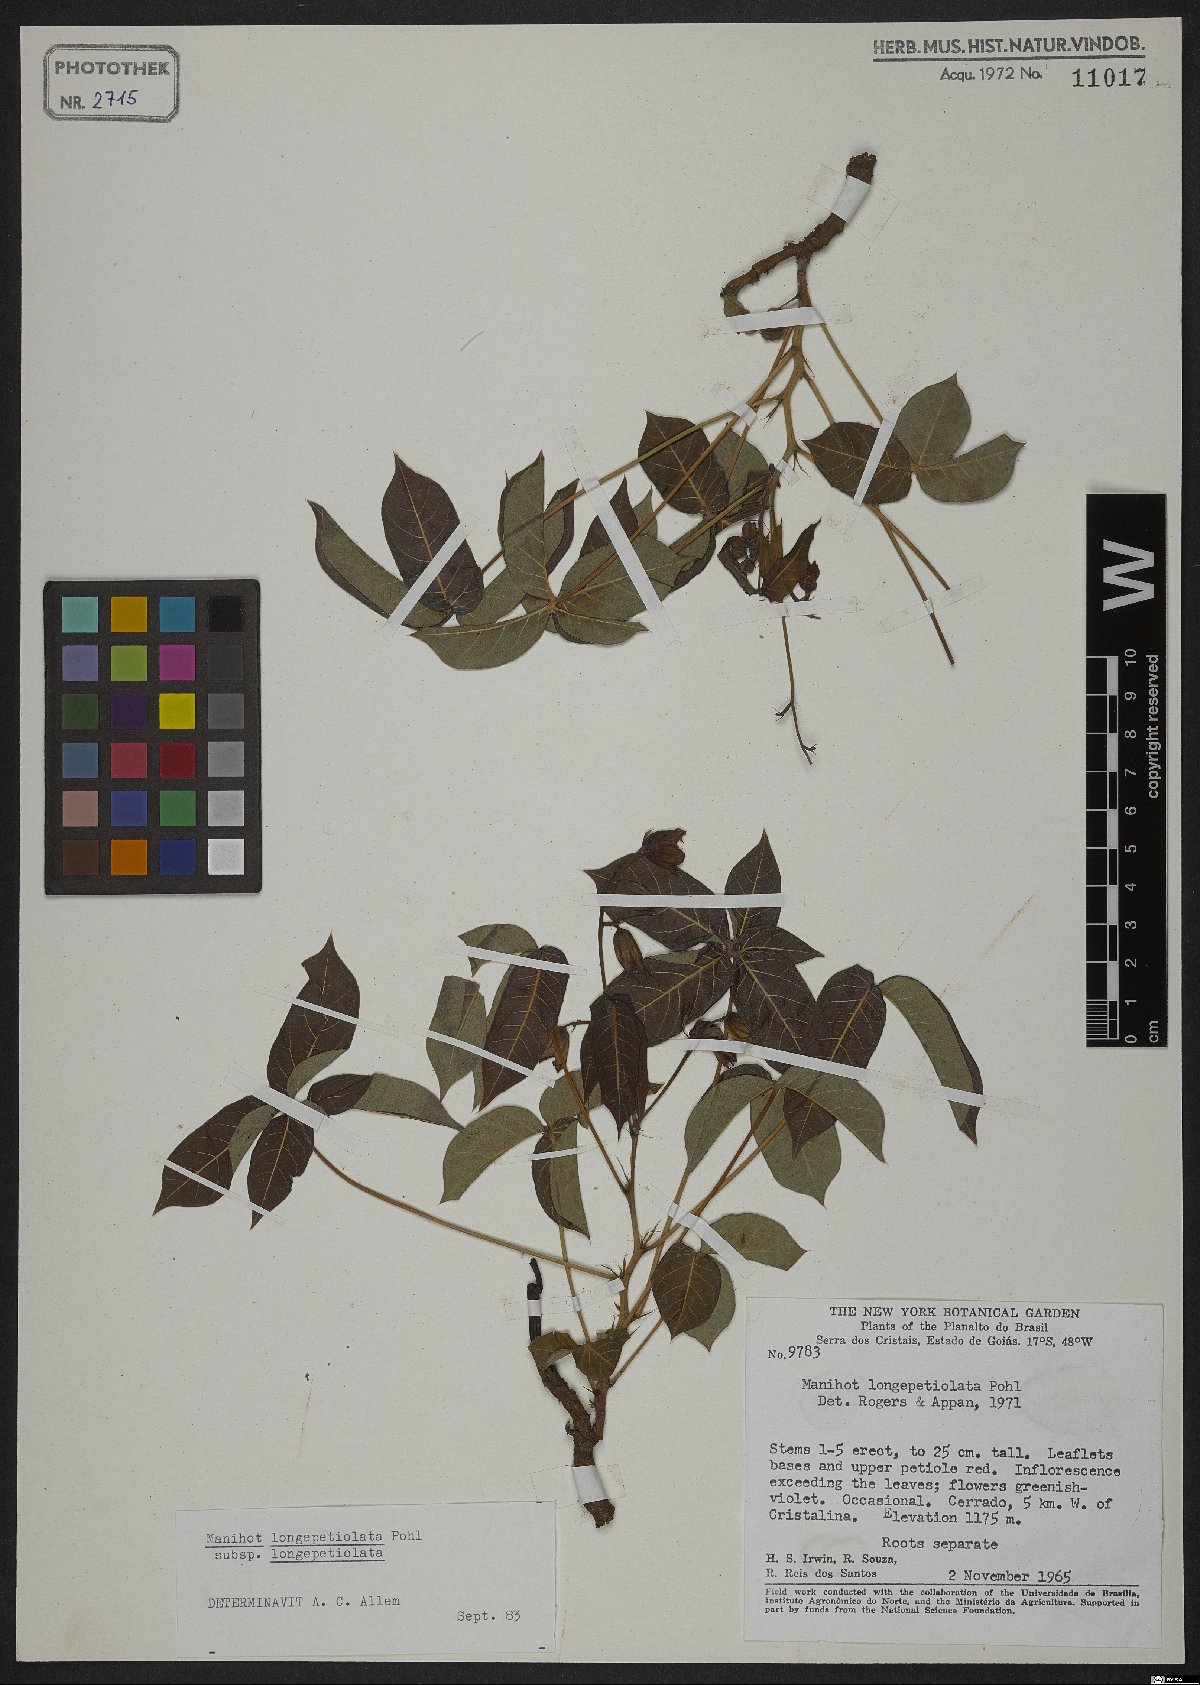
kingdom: Plantae
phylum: Tracheophyta
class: Magnoliopsida
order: Malpighiales
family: Euphorbiaceae
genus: Manihot
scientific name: Manihot longepetiolata
